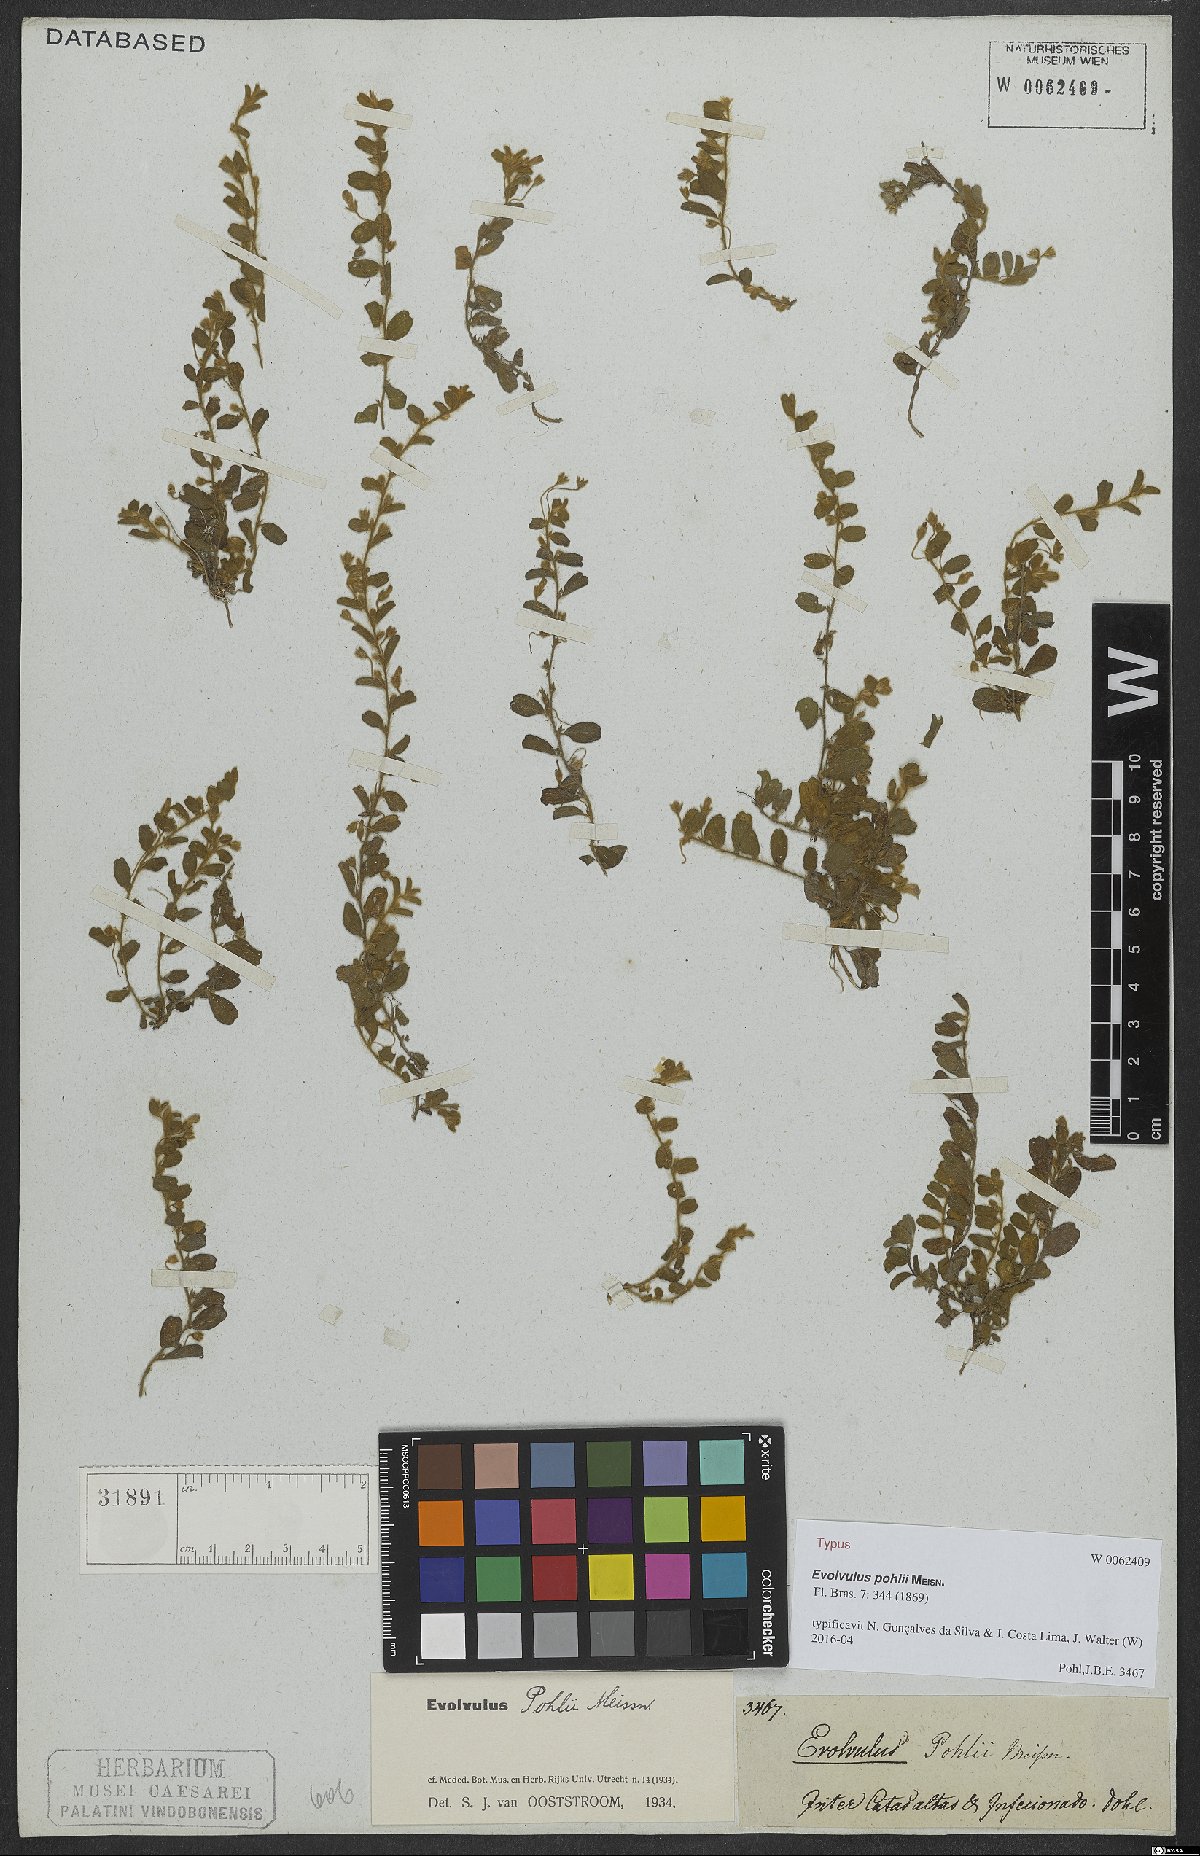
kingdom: Plantae
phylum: Tracheophyta
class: Magnoliopsida
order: Solanales
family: Convolvulaceae
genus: Evolvulus
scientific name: Evolvulus pohlii
